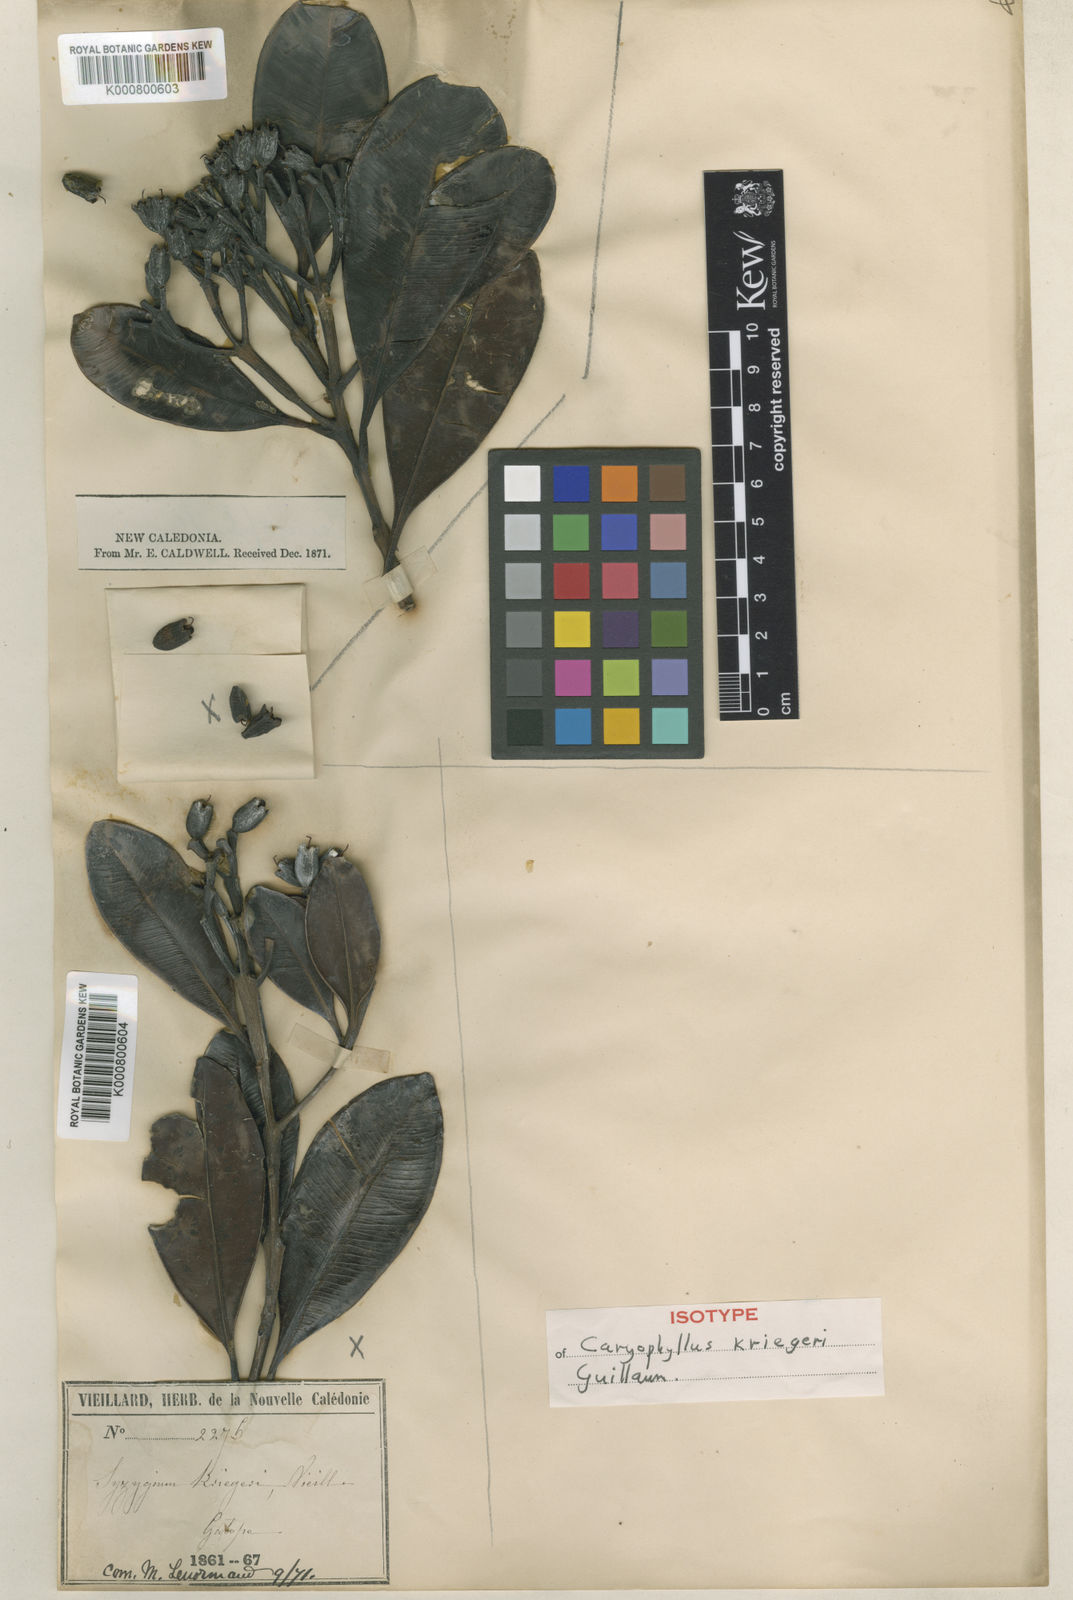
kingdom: Plantae
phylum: Tracheophyta
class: Magnoliopsida
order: Myrtales
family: Myrtaceae
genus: Syzygium
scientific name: Syzygium
